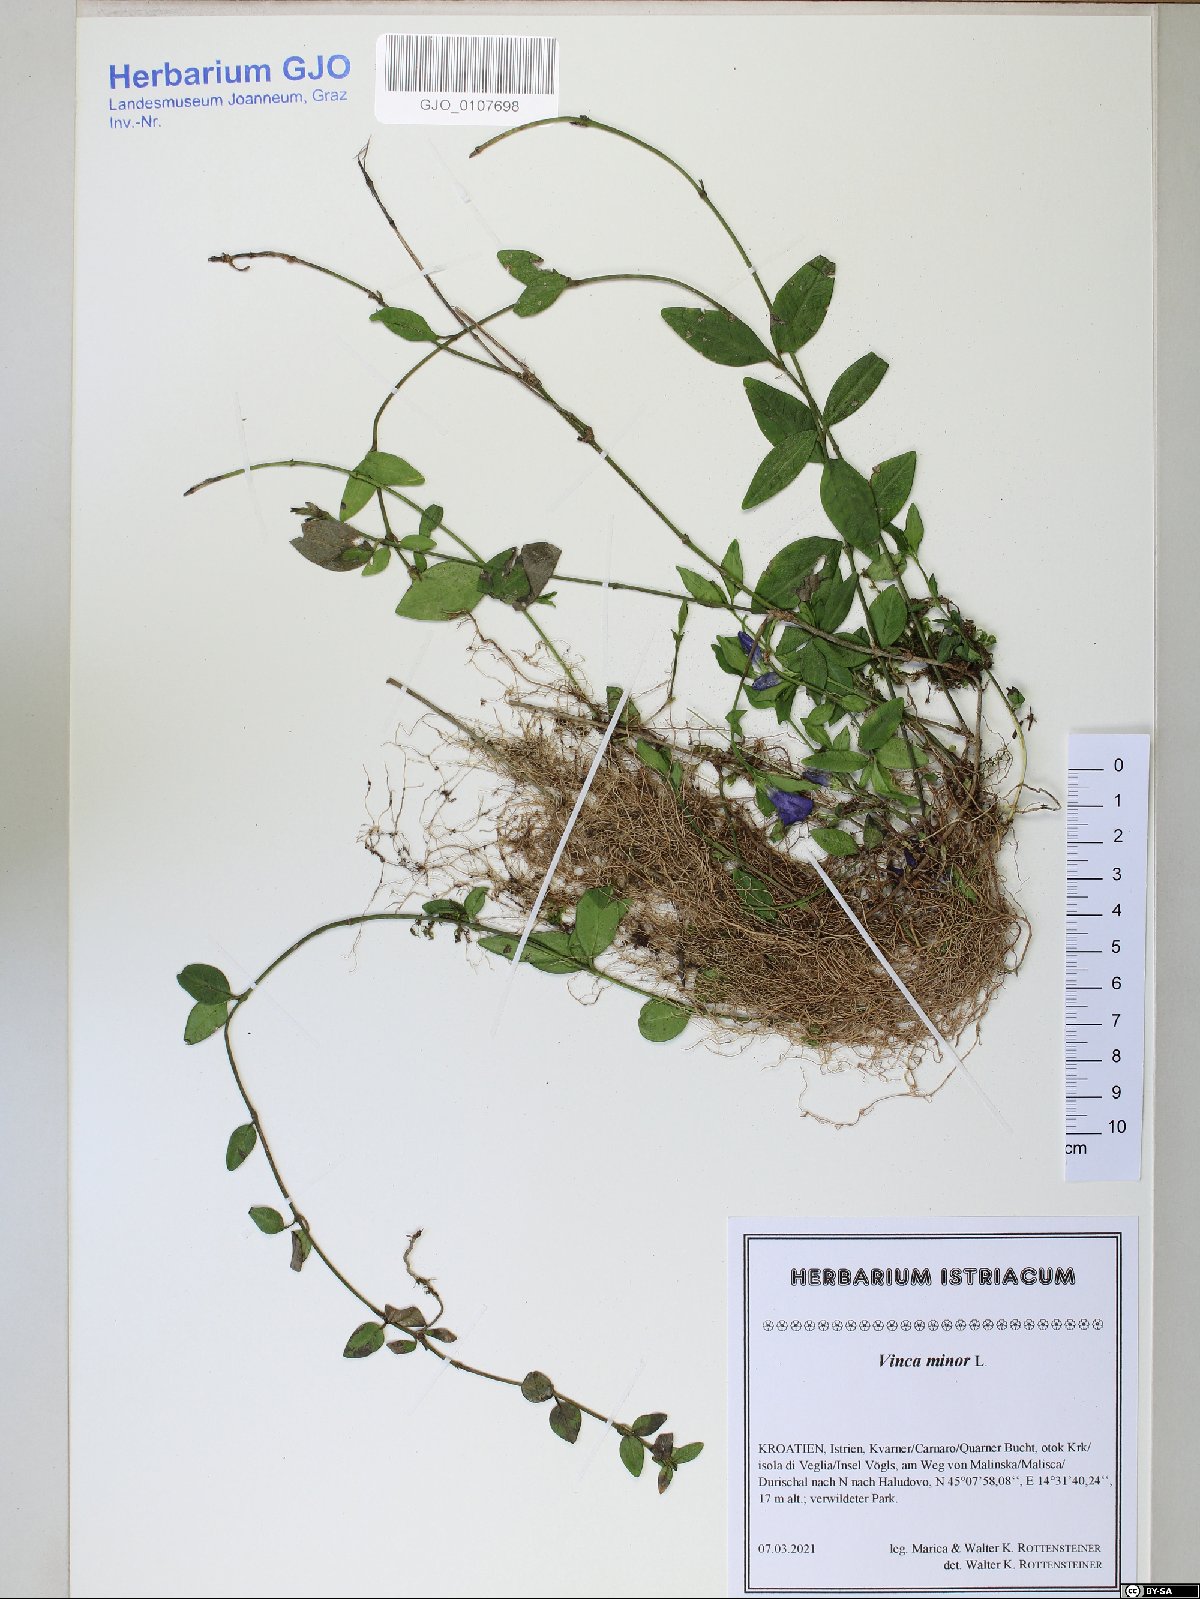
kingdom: Plantae
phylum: Tracheophyta
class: Magnoliopsida
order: Gentianales
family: Apocynaceae
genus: Vinca
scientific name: Vinca minor
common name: Lesser periwinkle
